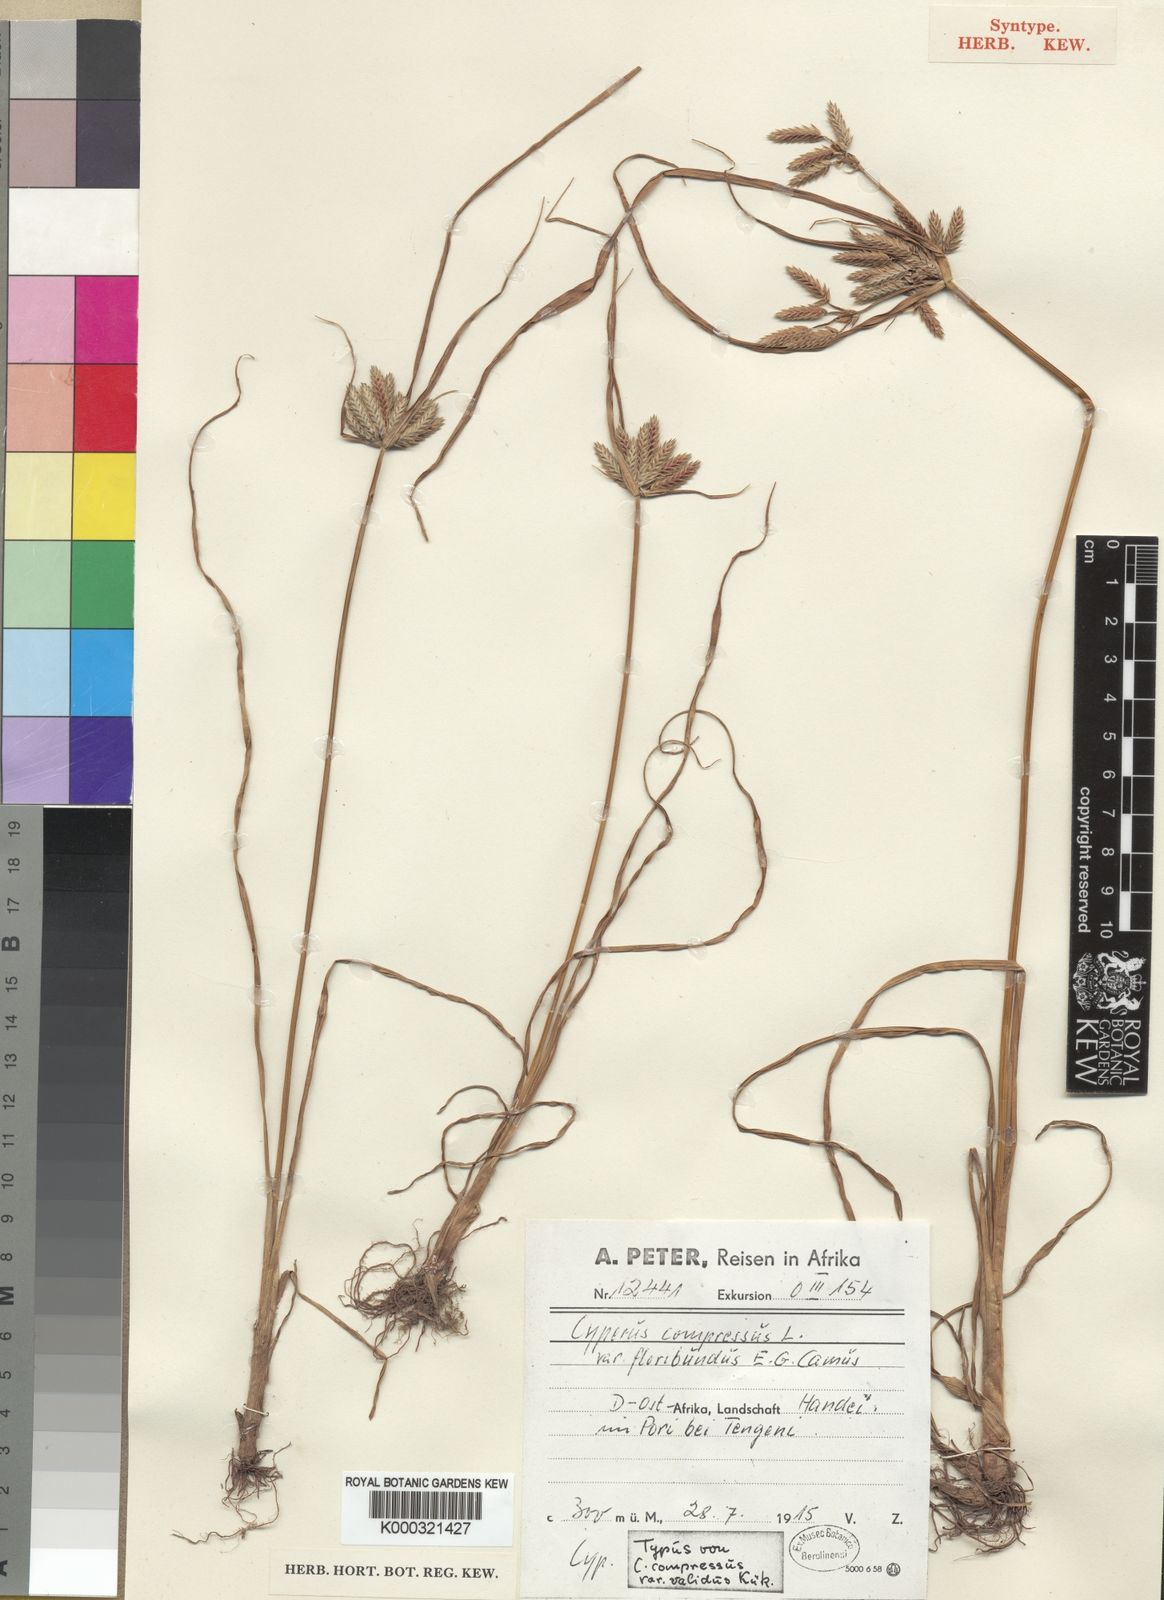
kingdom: Plantae
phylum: Tracheophyta
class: Liliopsida
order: Poales
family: Cyperaceae
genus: Cyperus
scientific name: Cyperus compressus
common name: Poorland flatsedge
